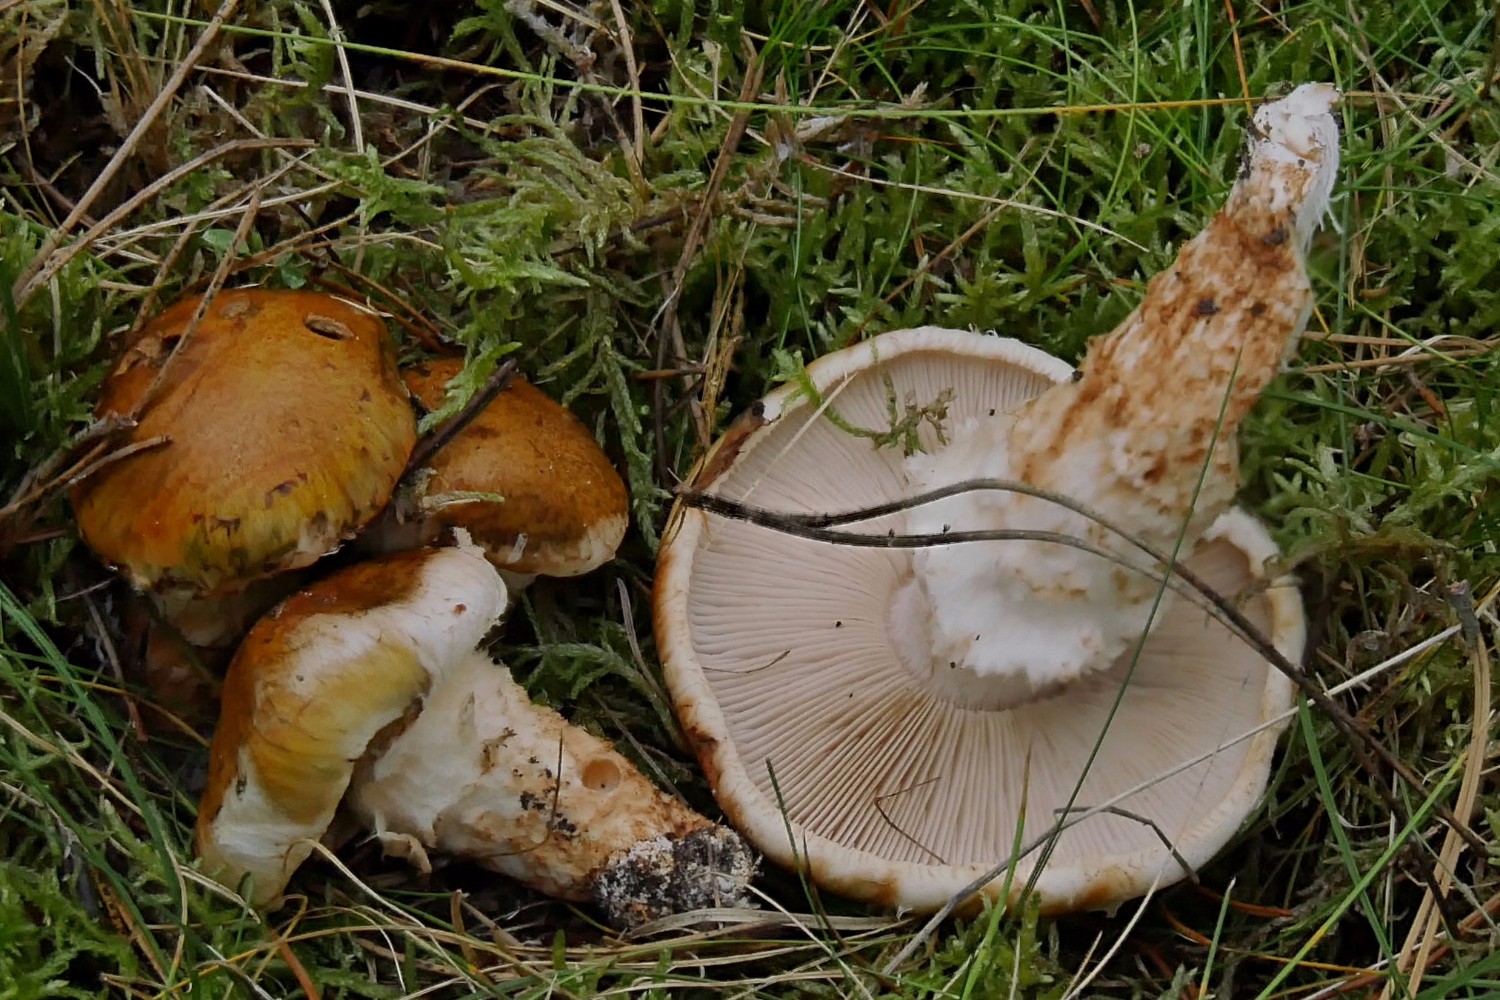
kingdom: Fungi
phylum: Basidiomycota
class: Agaricomycetes
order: Agaricales
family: Tricholomataceae
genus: Tricholoma
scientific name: Tricholoma focale
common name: halsbånd-ridderhat
